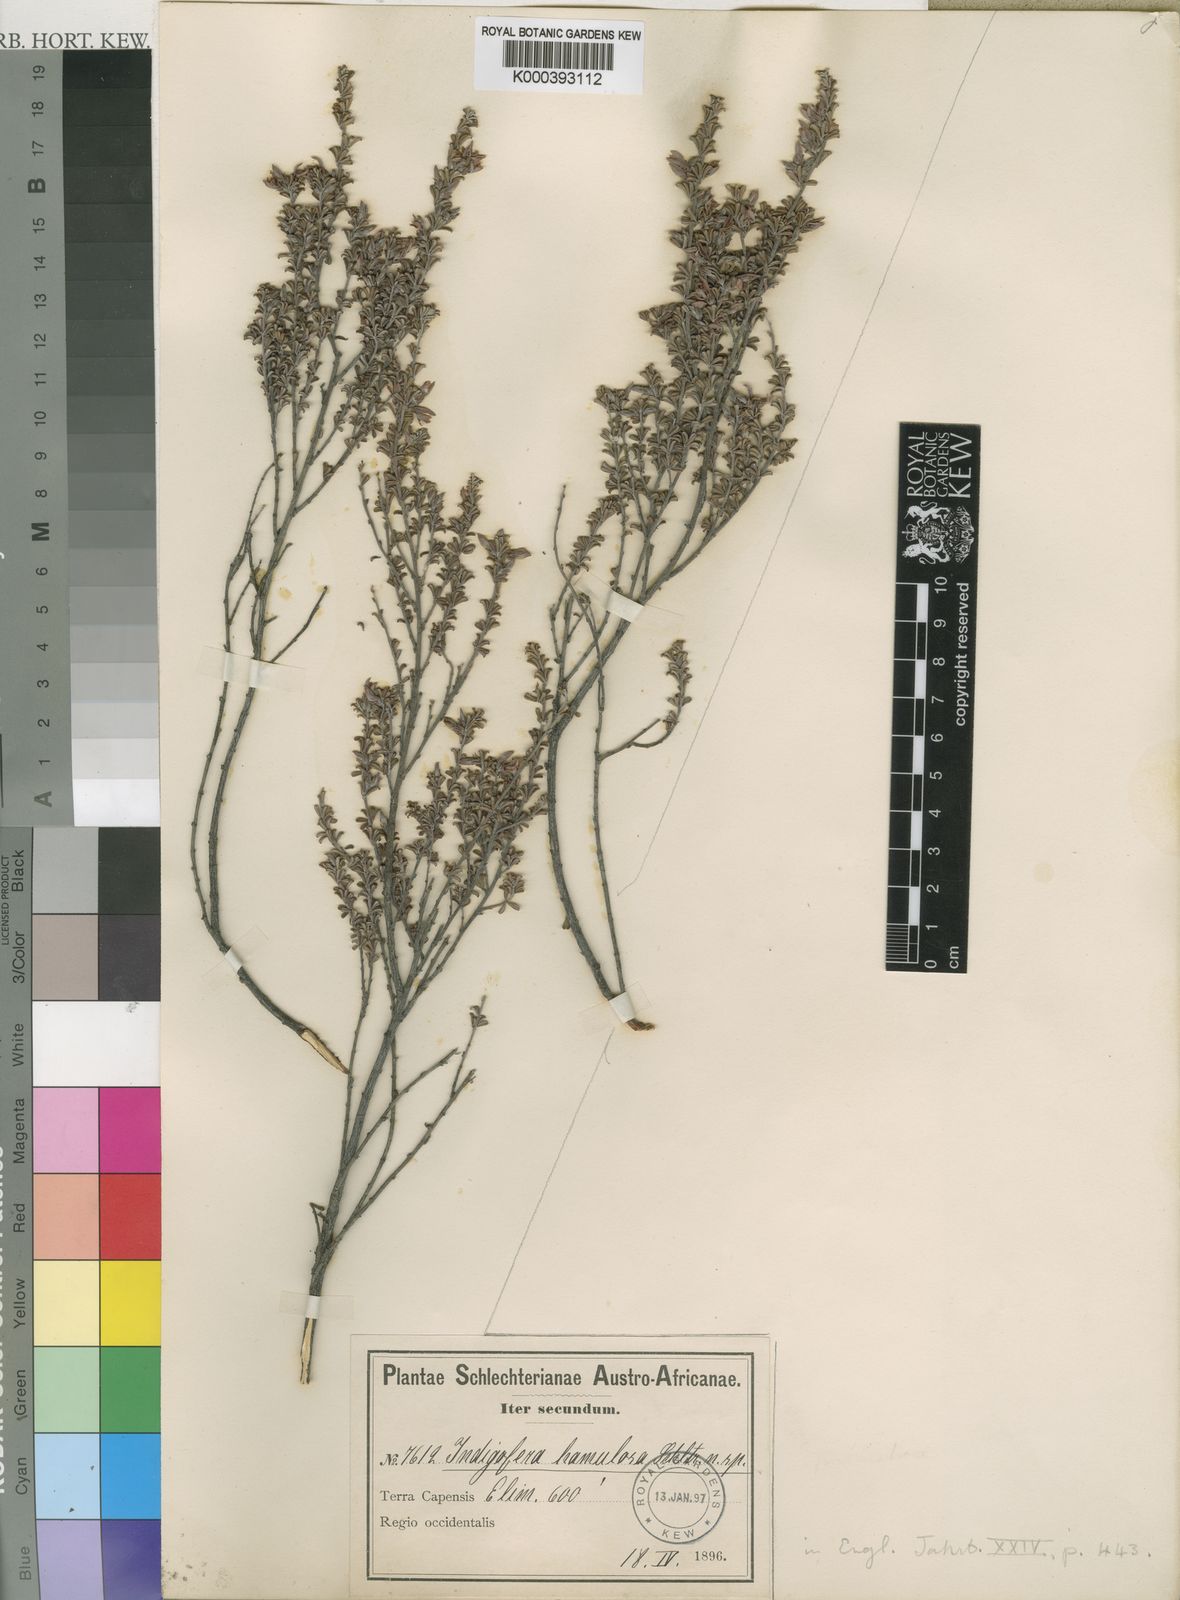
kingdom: Plantae
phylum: Tracheophyta
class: Magnoliopsida
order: Fabales
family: Fabaceae
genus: Indigofera
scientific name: Indigofera hamulosa
